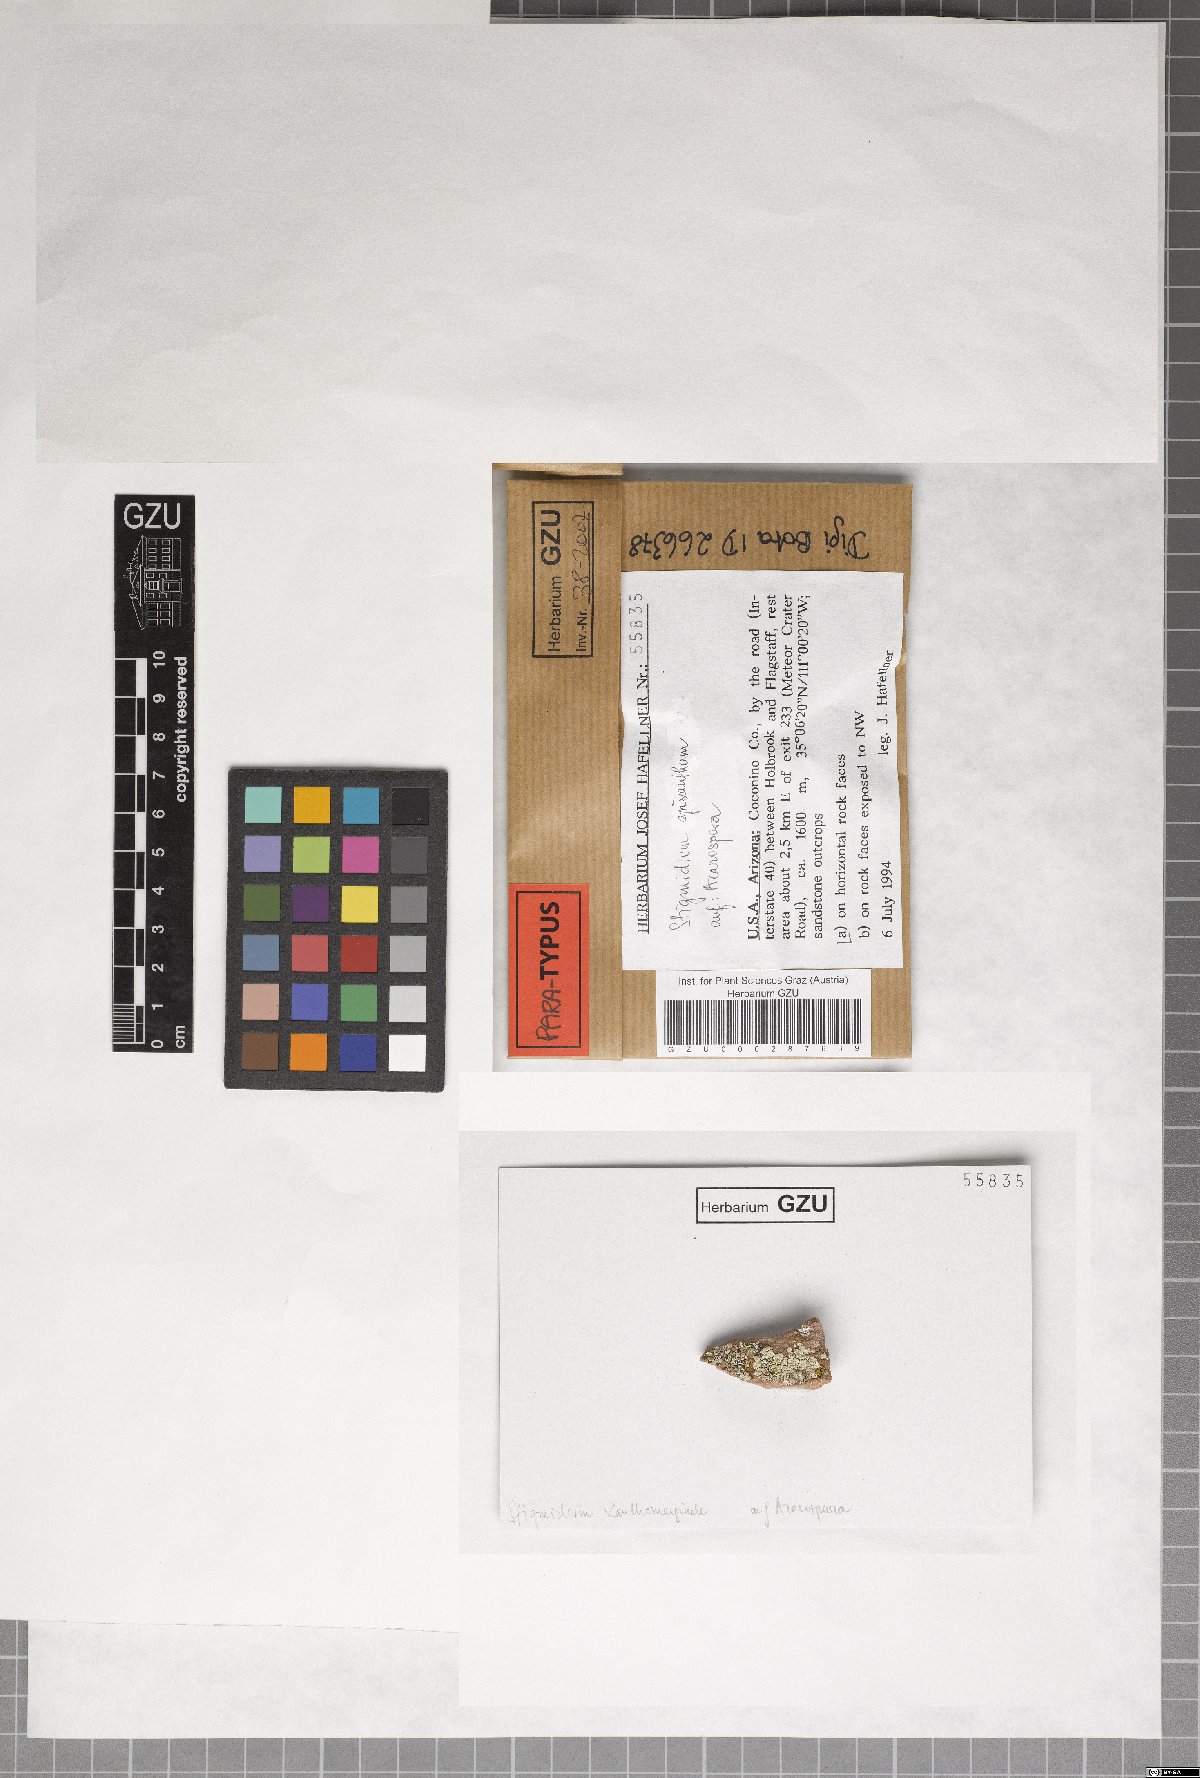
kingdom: Fungi
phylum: Ascomycota
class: Dothideomycetes
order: Mycosphaerellales
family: Mycosphaerellaceae
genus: Stigmidium
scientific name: Stigmidium epixanthum
